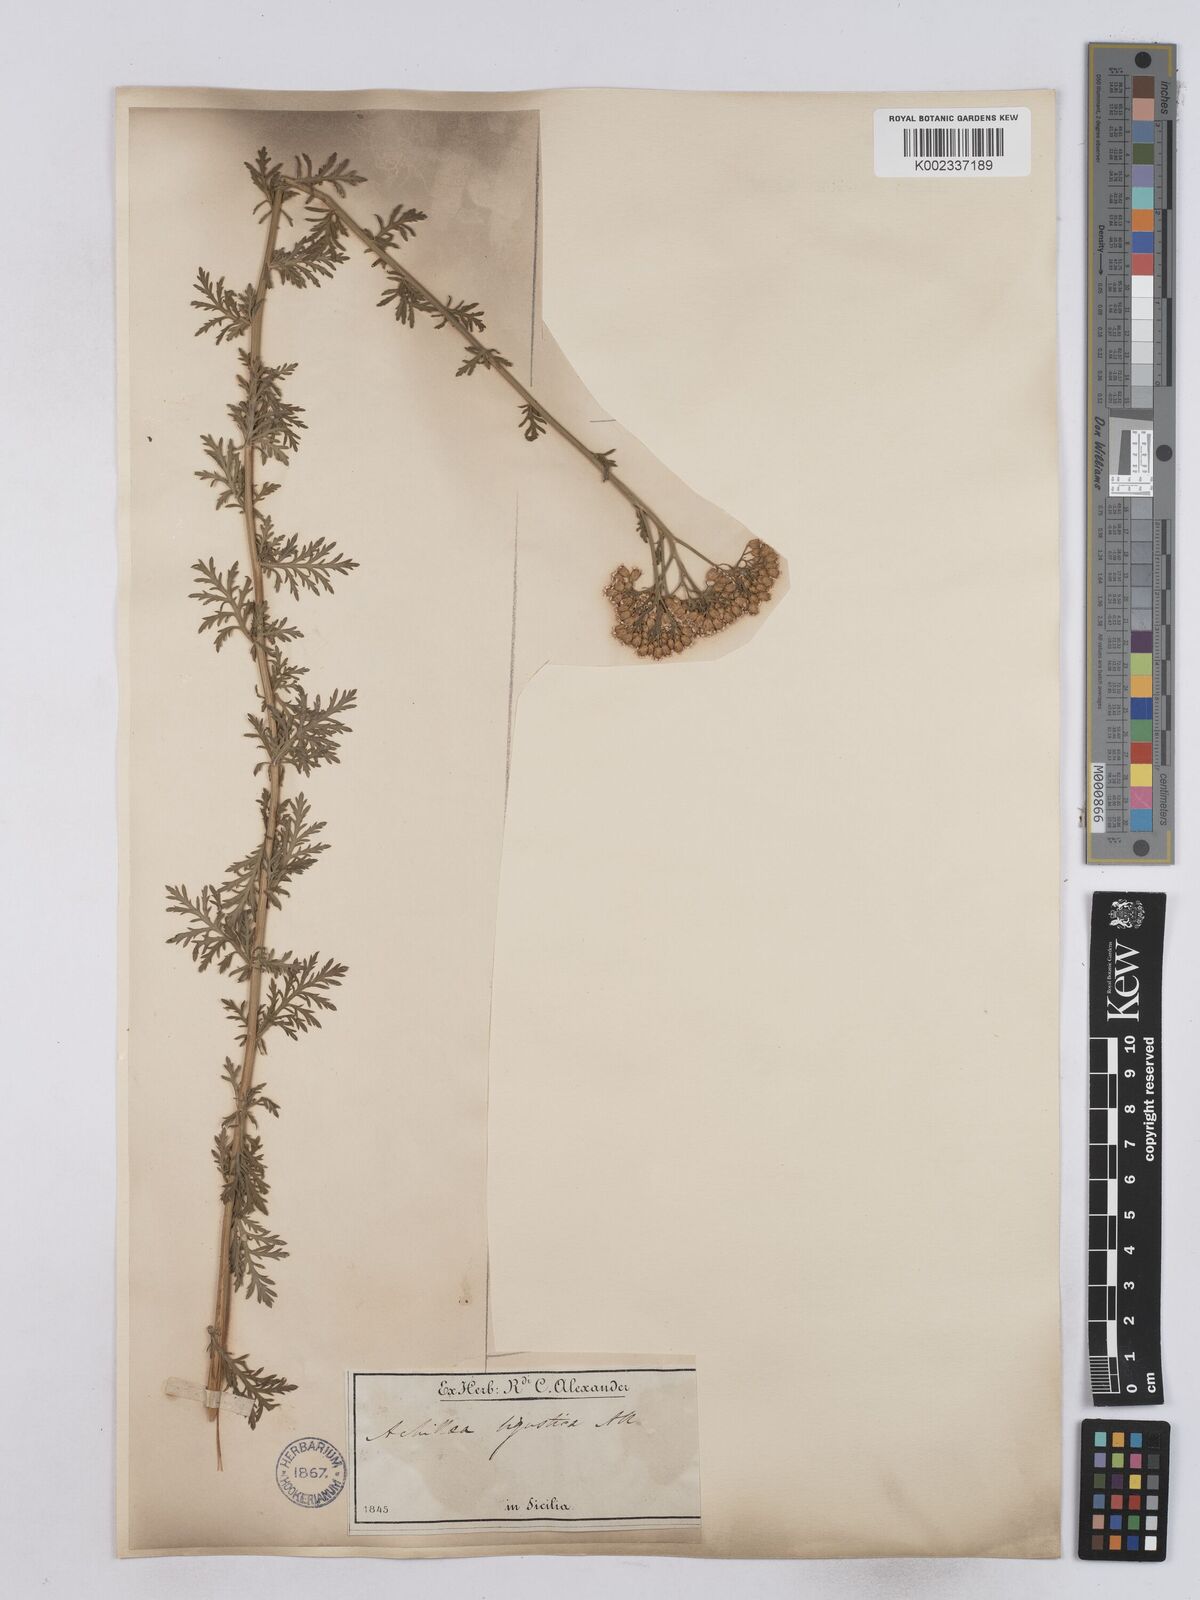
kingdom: Plantae
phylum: Tracheophyta
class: Magnoliopsida
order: Asterales
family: Asteraceae
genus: Achillea
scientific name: Achillea ligustica
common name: Southern yarrow
